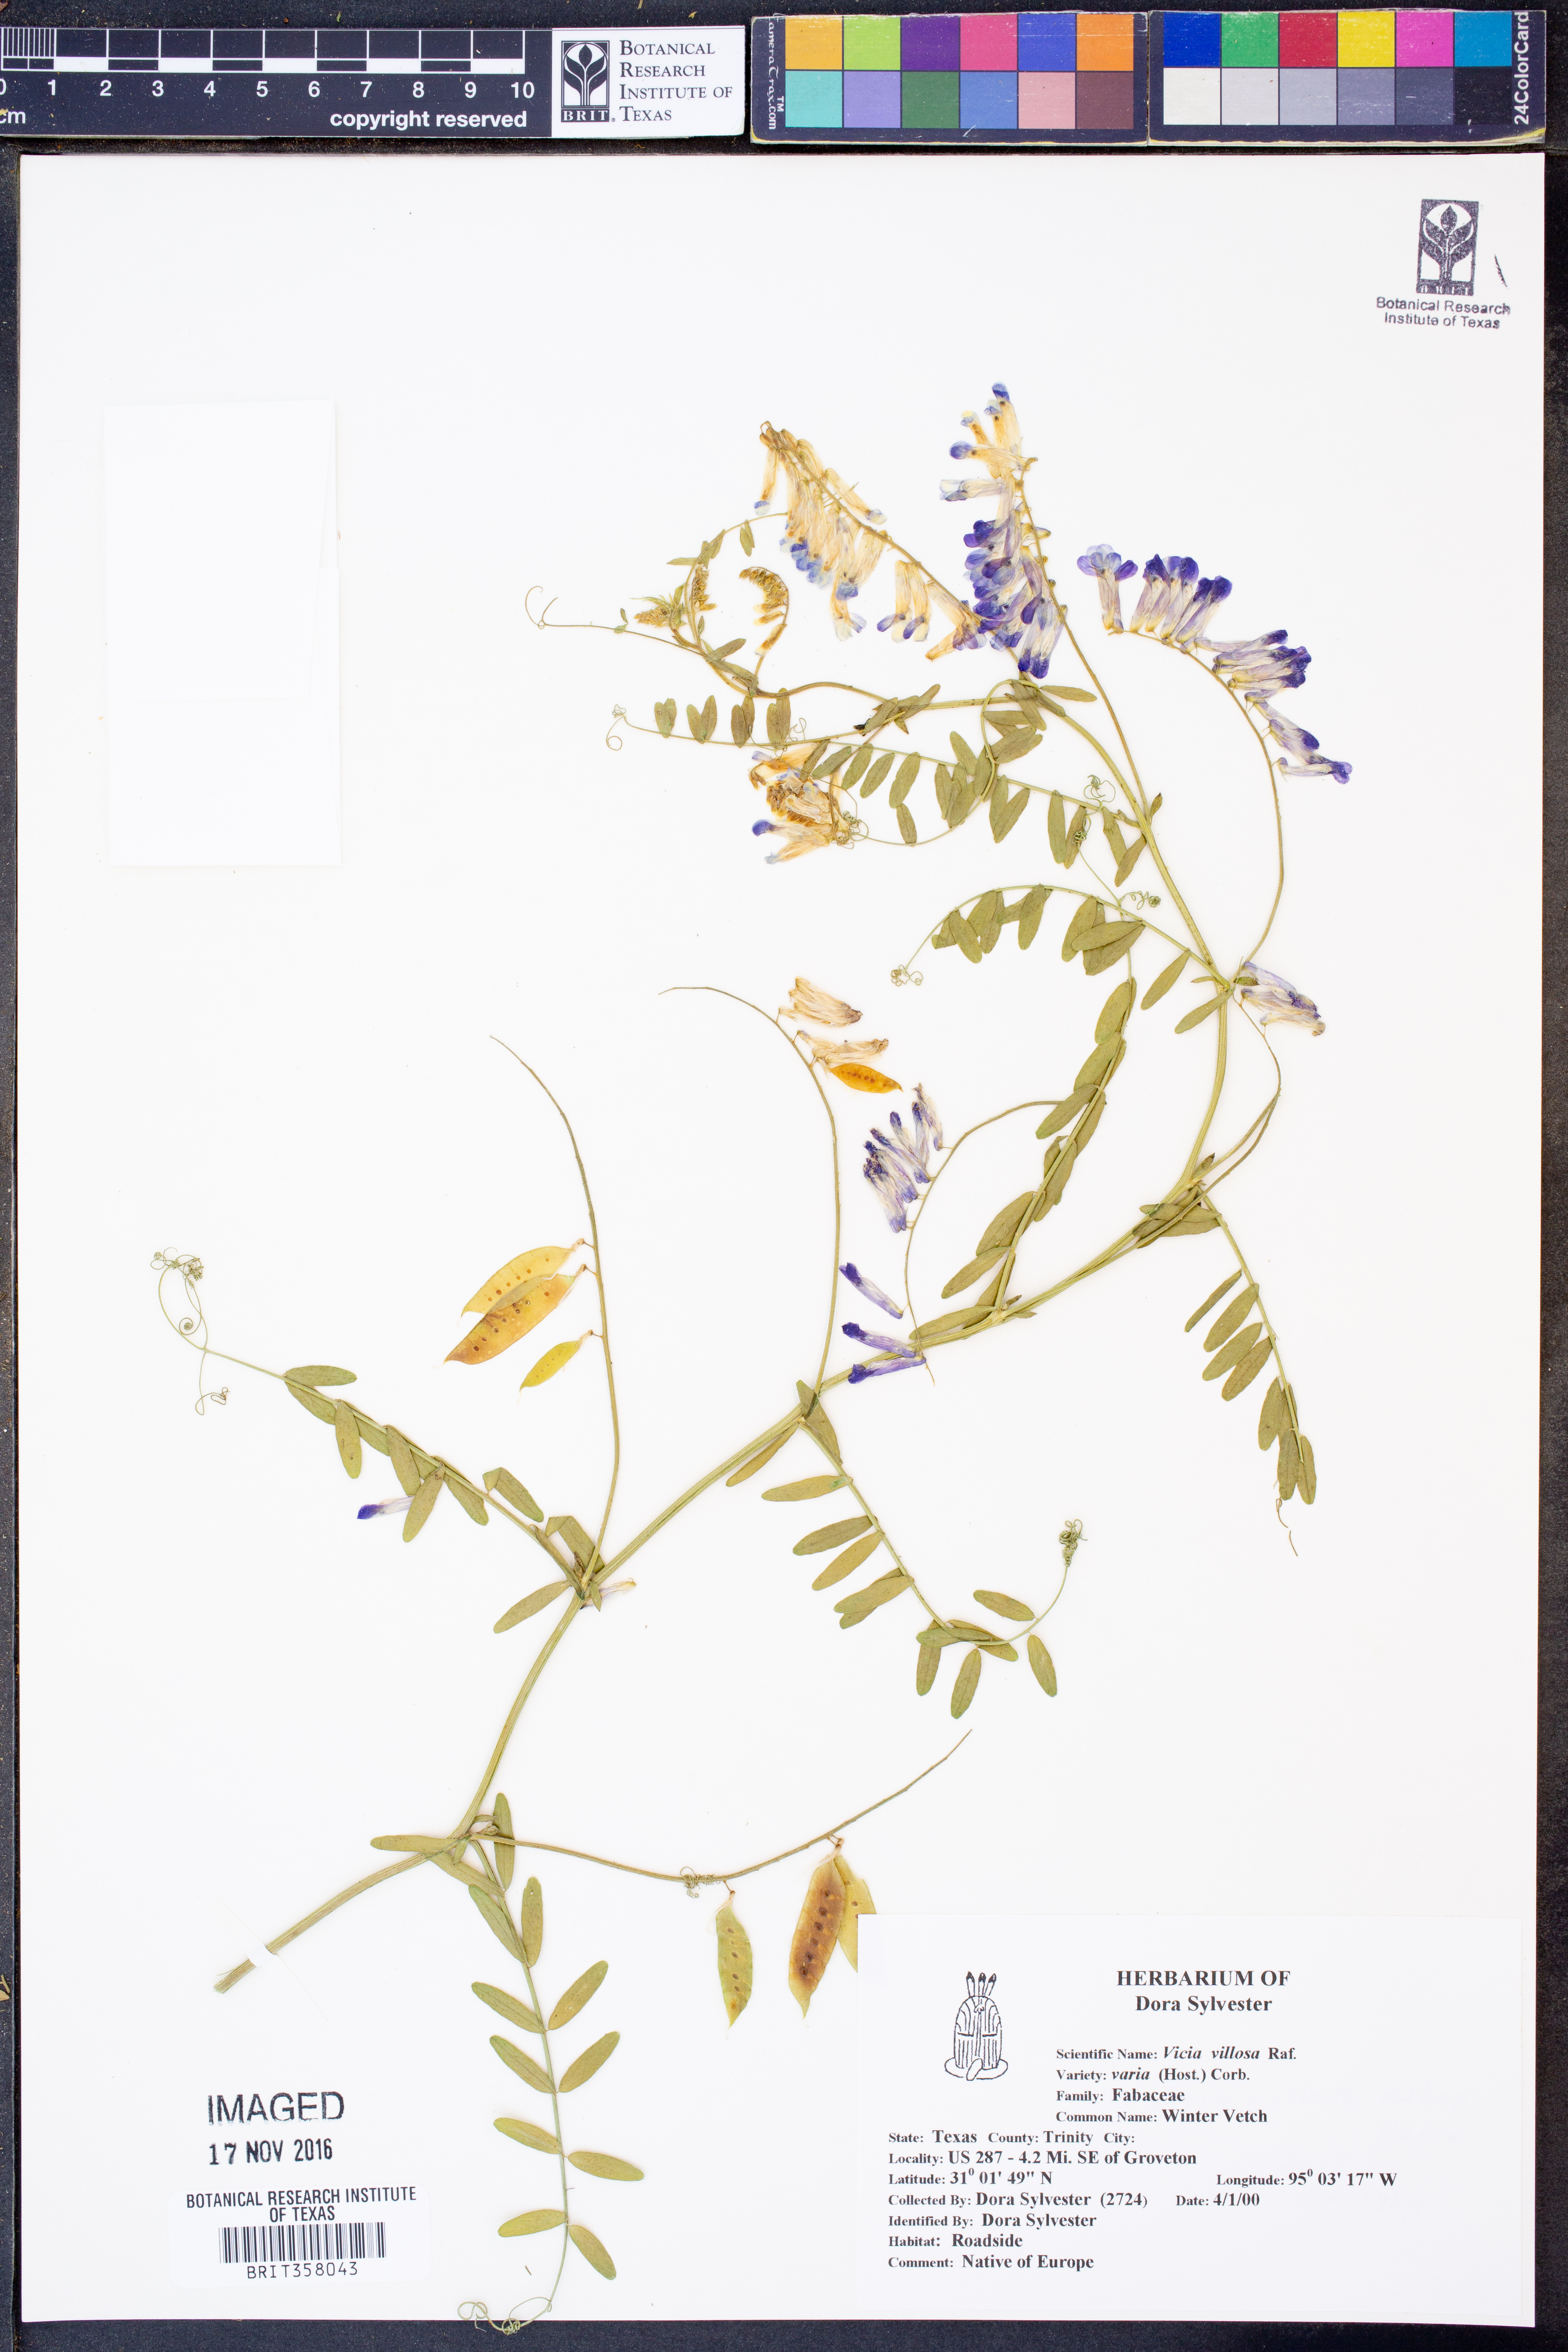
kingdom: Plantae
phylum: Tracheophyta
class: Magnoliopsida
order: Fabales
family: Fabaceae
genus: Vicia
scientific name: Vicia villosa
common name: Fodder vetch
